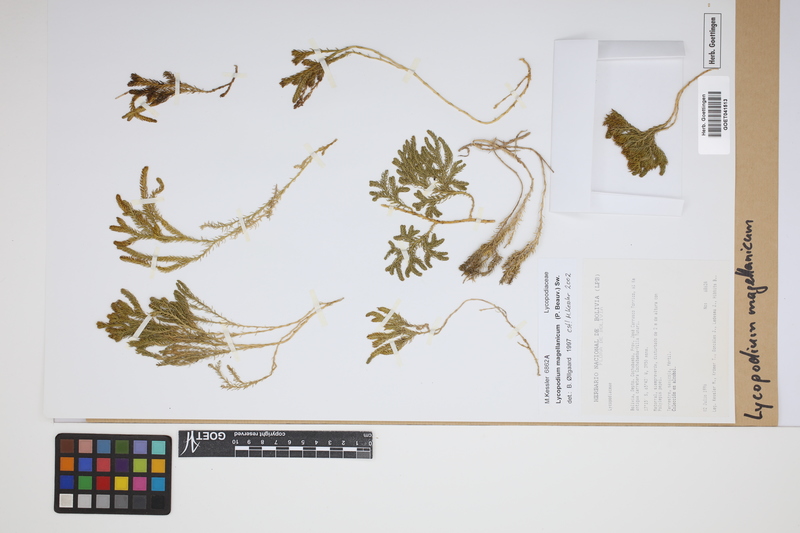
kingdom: Plantae
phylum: Tracheophyta
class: Lycopodiopsida
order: Lycopodiales
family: Lycopodiaceae
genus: Austrolycopodium
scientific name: Austrolycopodium magellanicum
